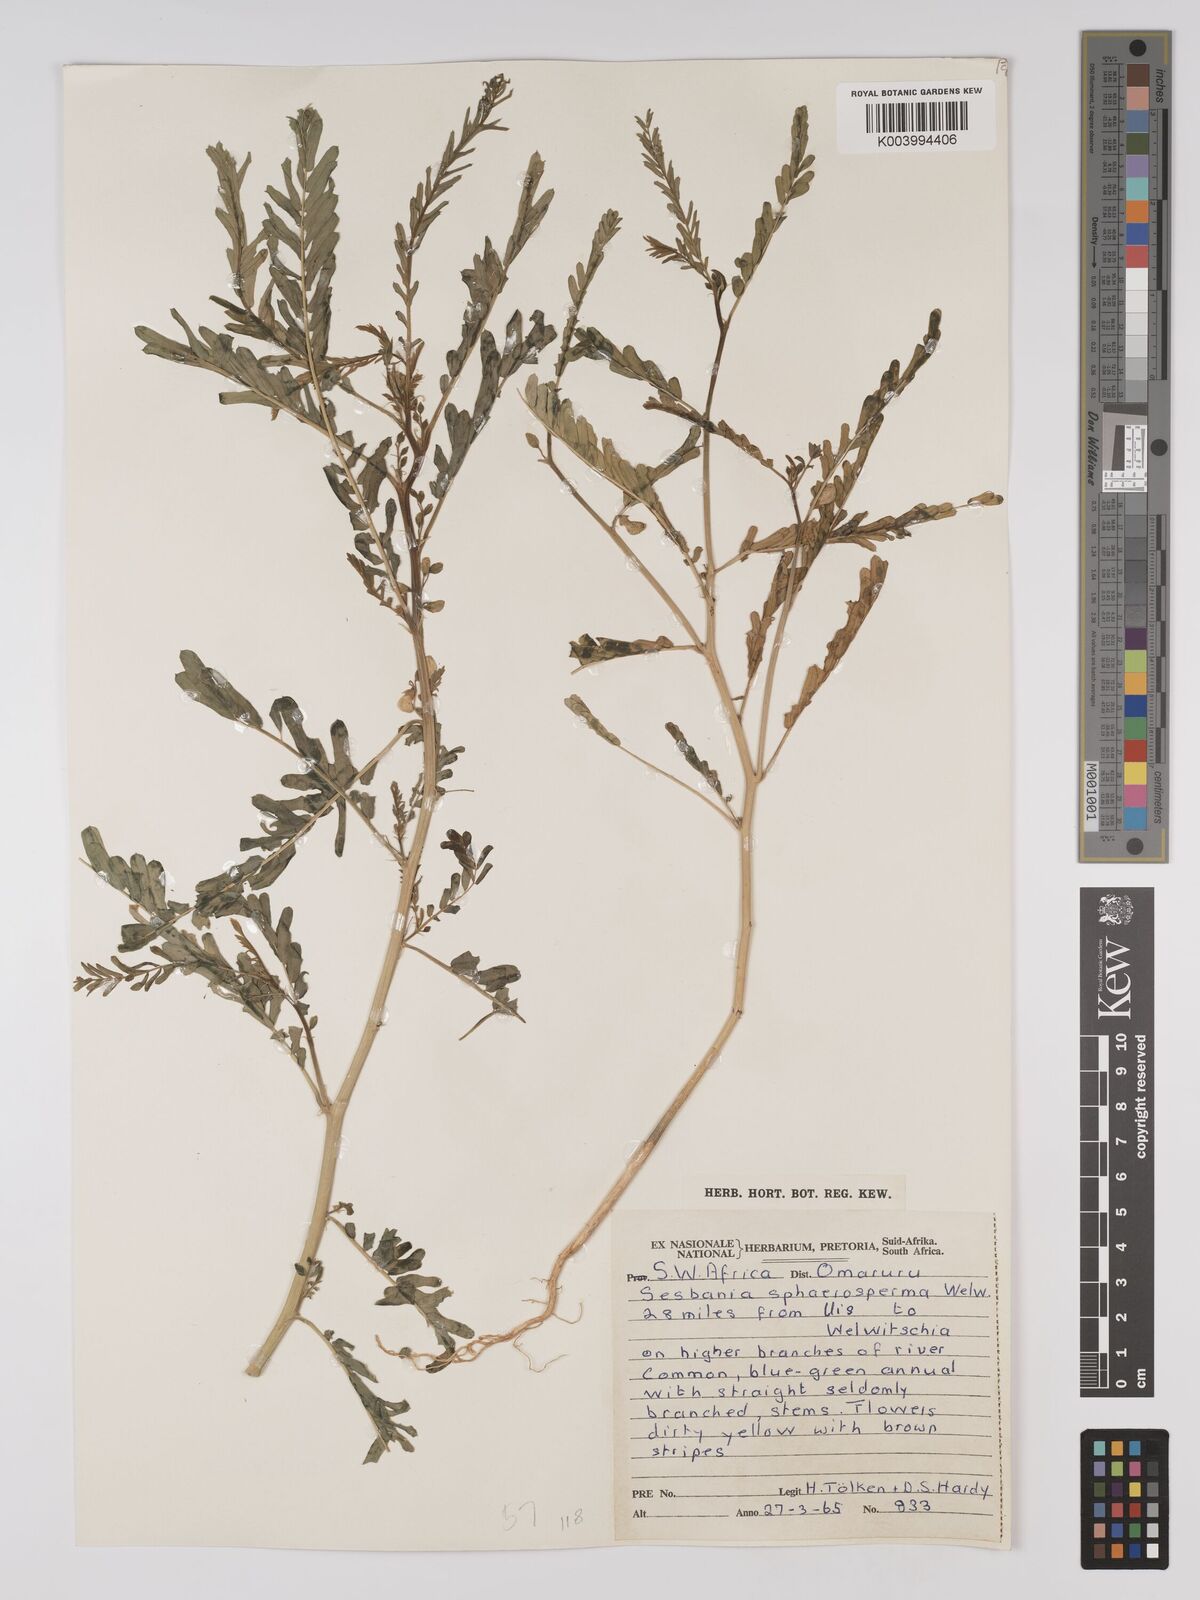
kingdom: Plantae
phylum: Tracheophyta
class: Magnoliopsida
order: Fabales
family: Fabaceae
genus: Sesbania
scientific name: Sesbania sphaerocarpa
